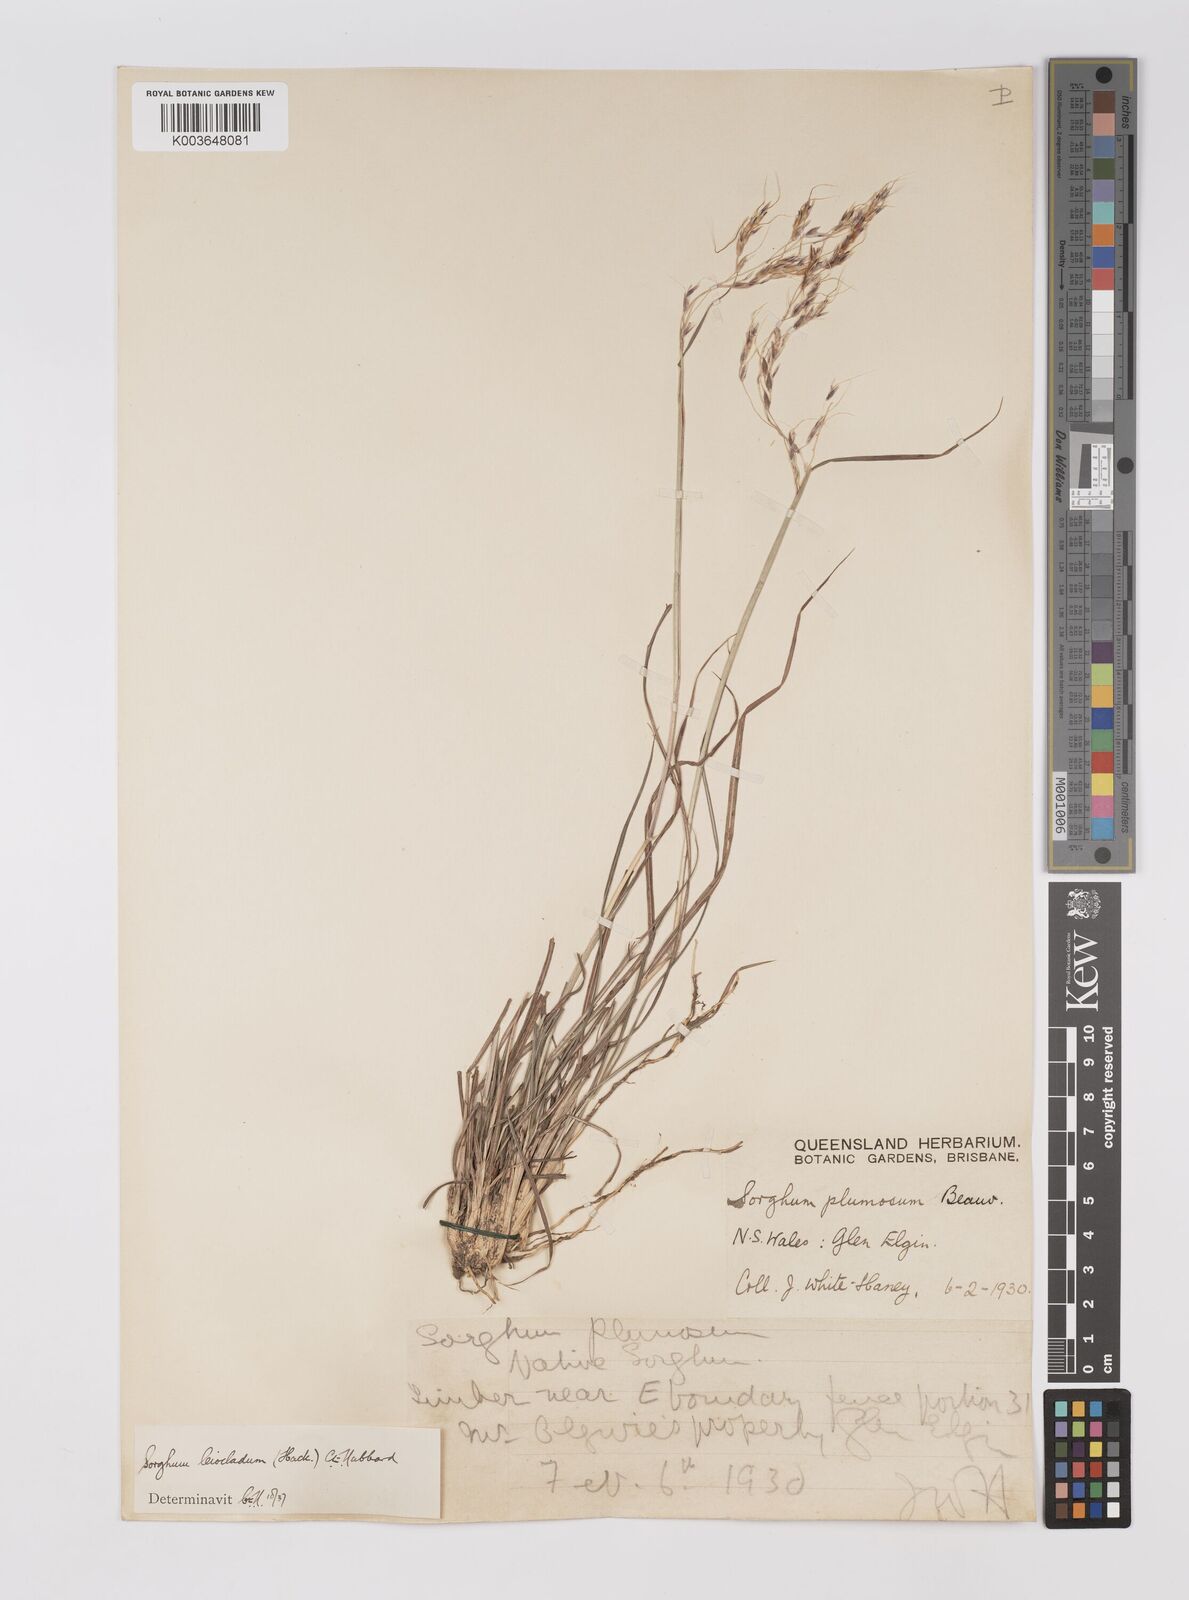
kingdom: Plantae
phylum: Tracheophyta
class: Liliopsida
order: Poales
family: Poaceae
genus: Sarga
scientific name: Sarga leioclada
